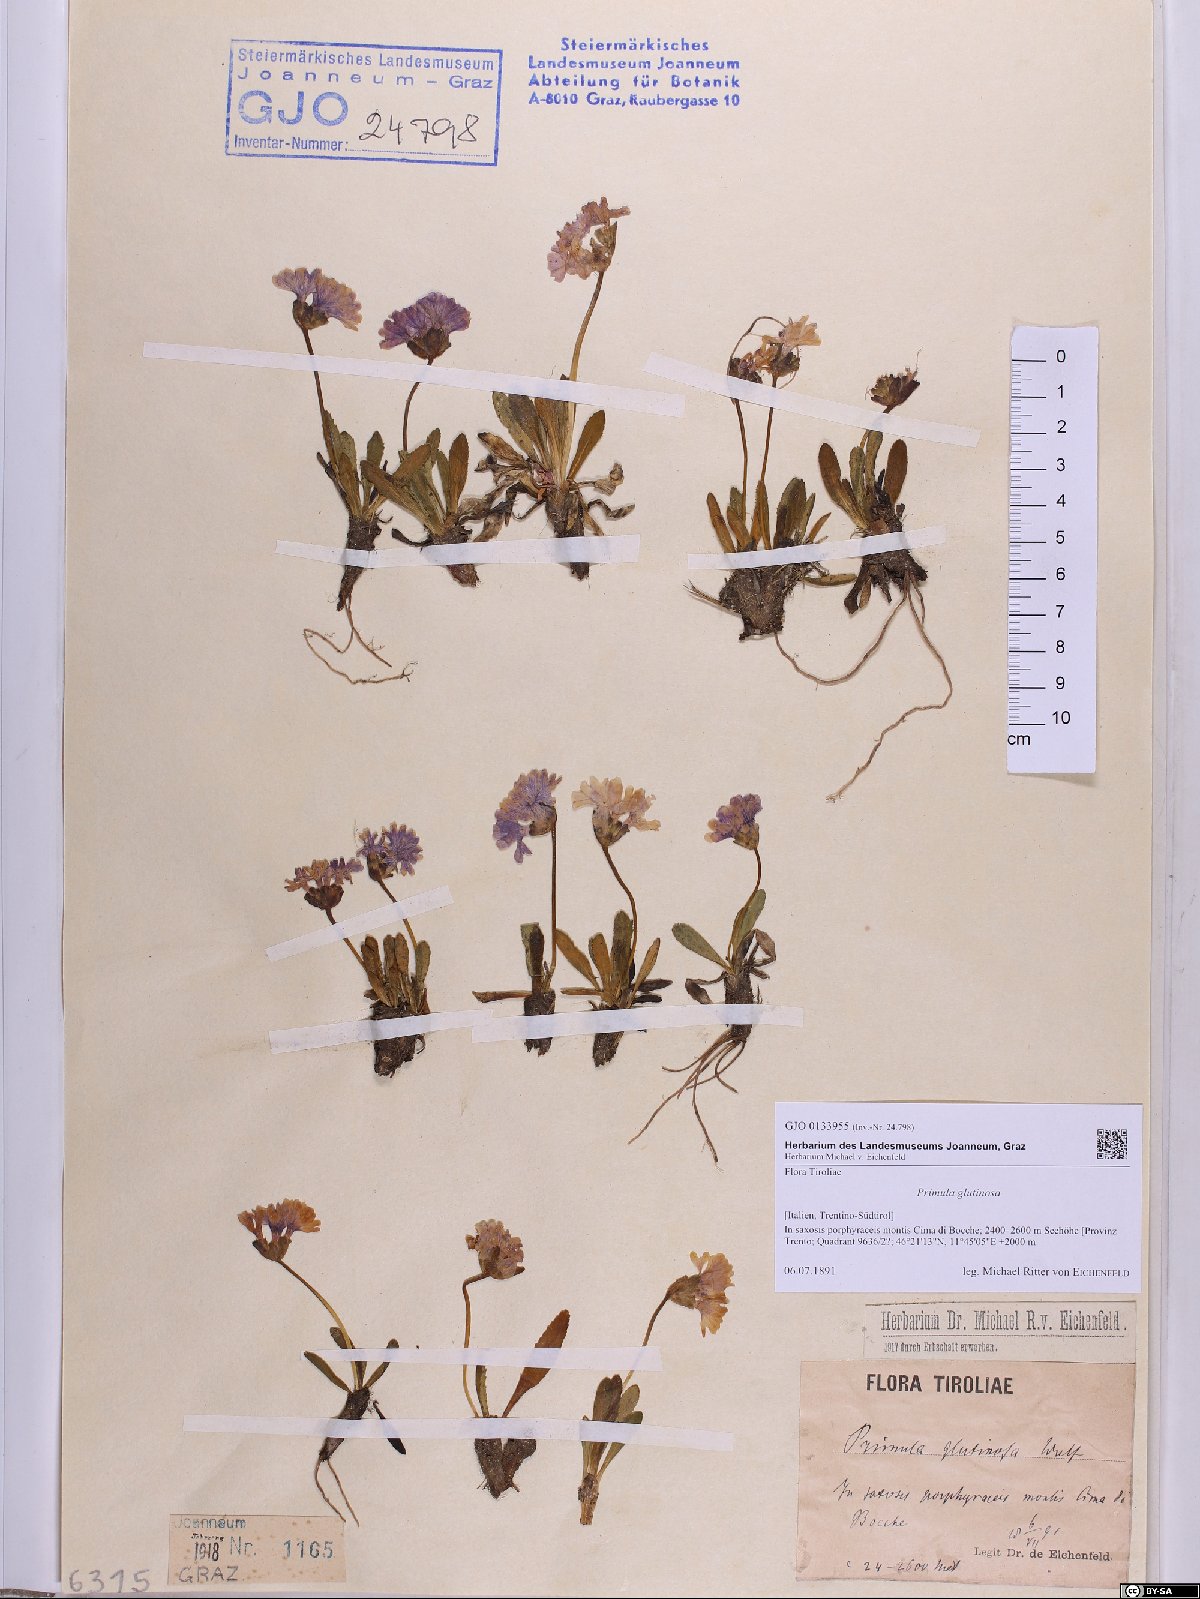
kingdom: Plantae
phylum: Tracheophyta
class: Magnoliopsida
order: Ericales
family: Primulaceae
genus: Primula
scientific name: Primula glutinosa
